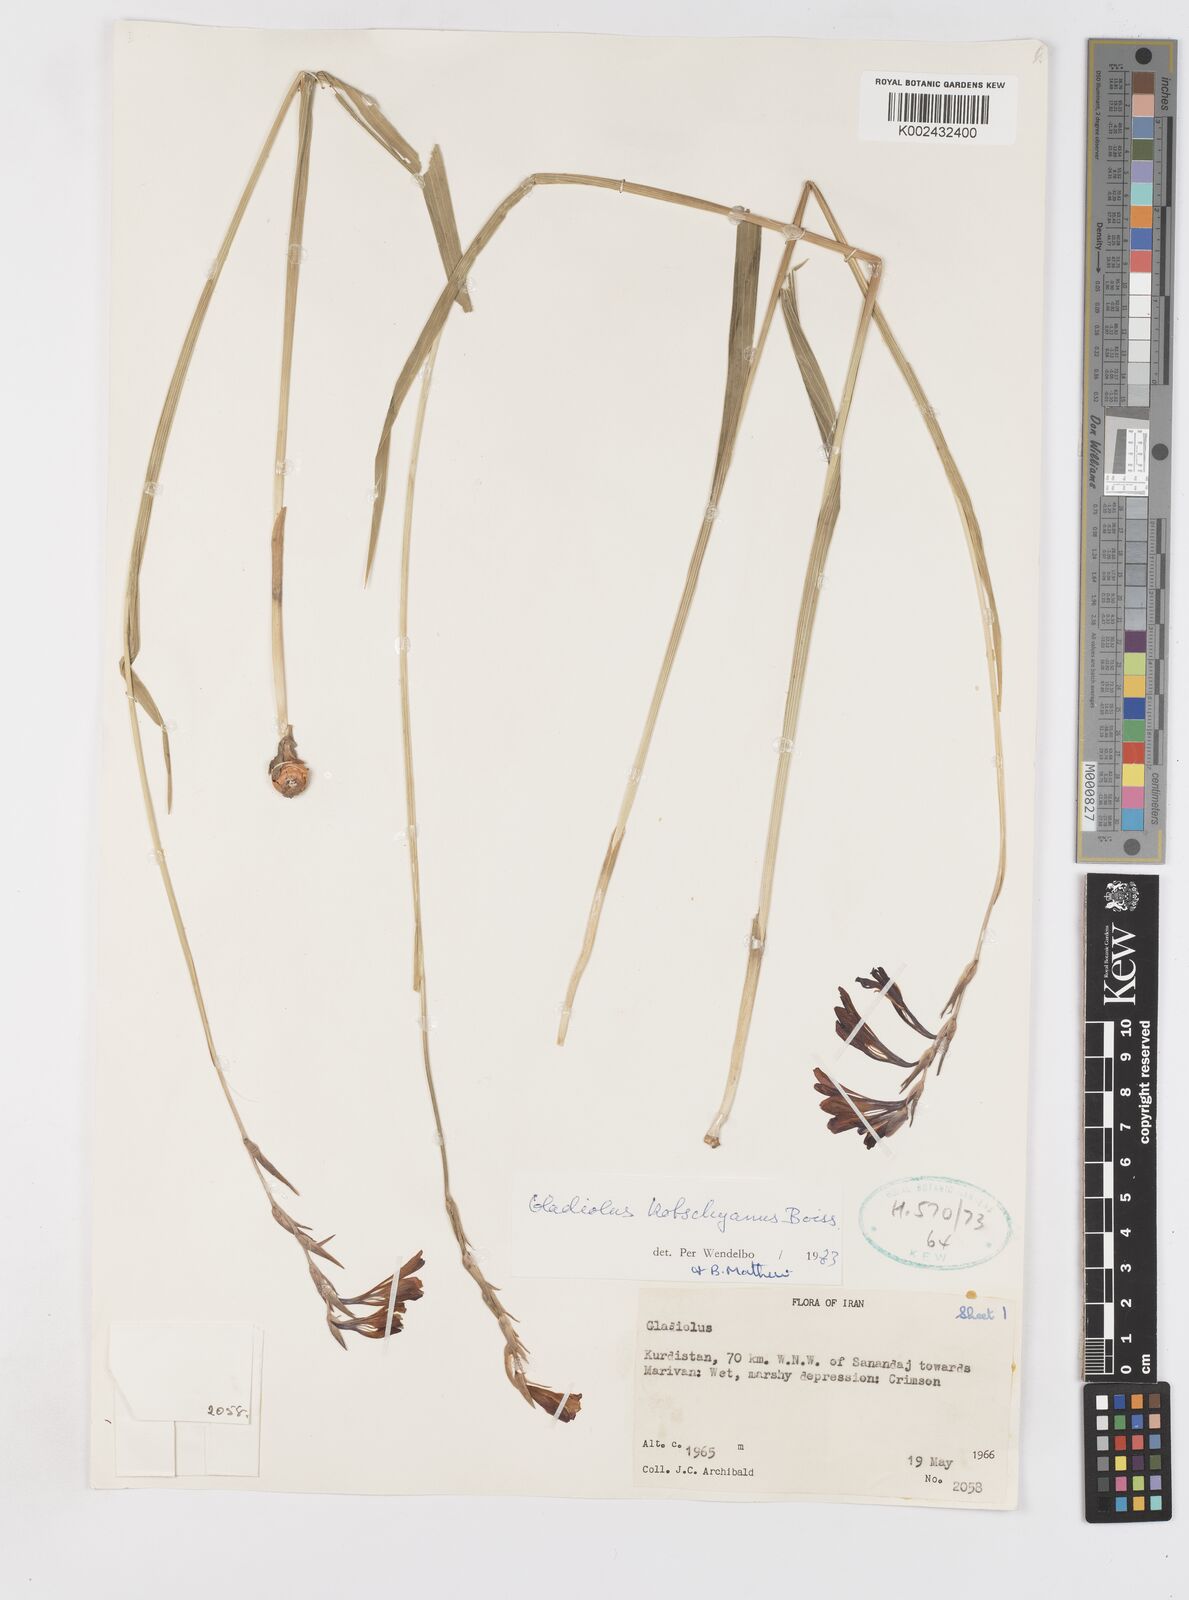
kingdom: Plantae
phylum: Tracheophyta
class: Liliopsida
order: Asparagales
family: Iridaceae
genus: Gladiolus
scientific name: Gladiolus kotschyanus
